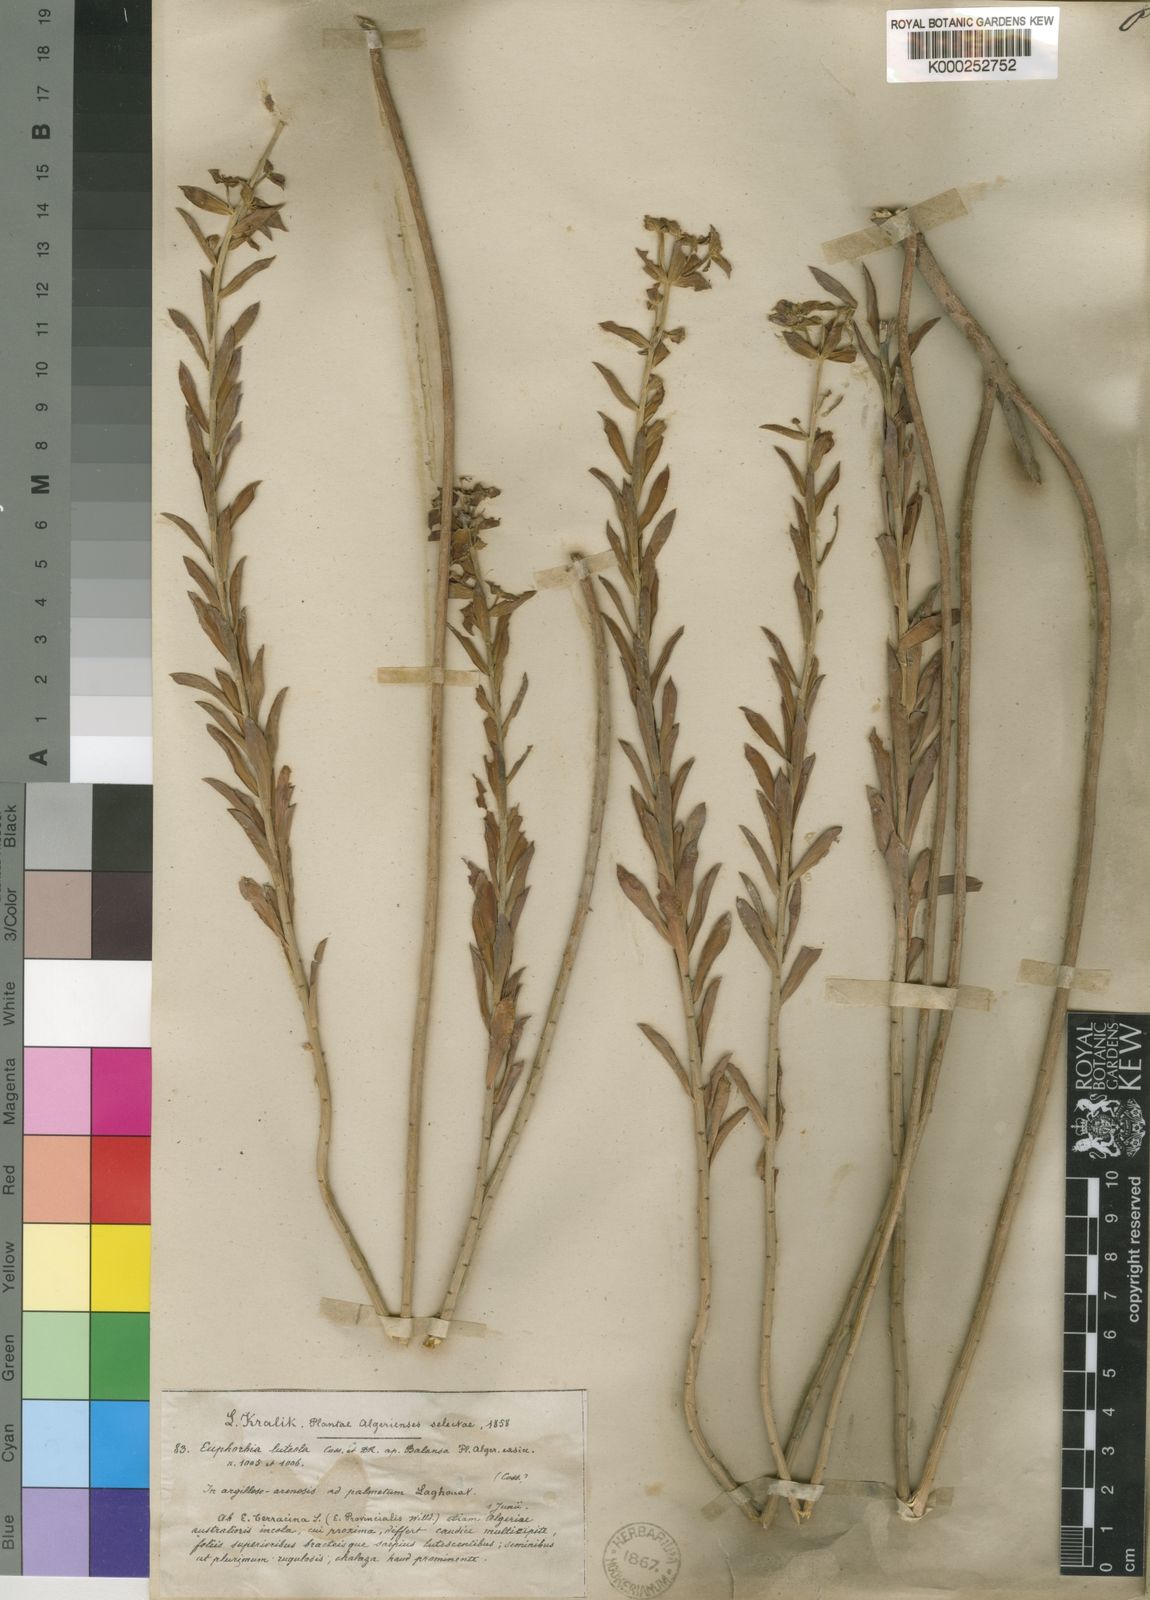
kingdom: Plantae
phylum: Tracheophyta
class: Magnoliopsida
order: Malpighiales
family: Euphorbiaceae
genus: Euphorbia
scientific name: Euphorbia nicaeensis
